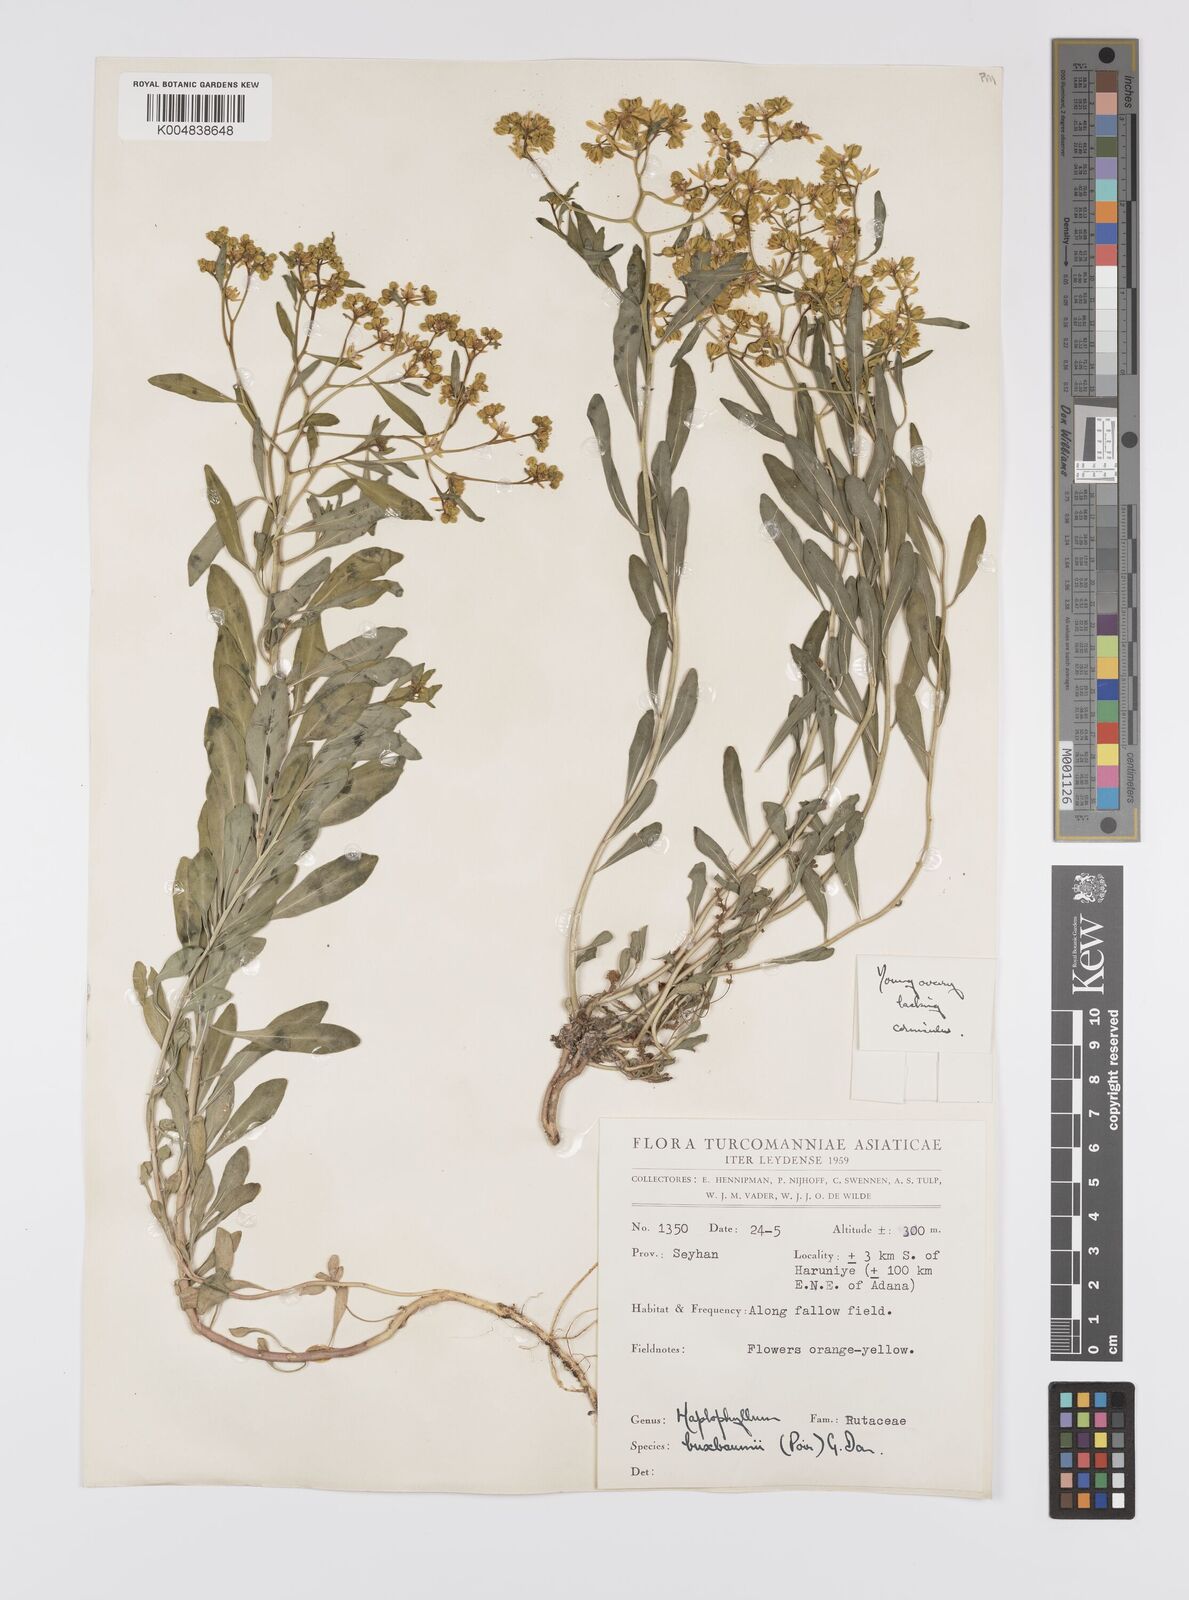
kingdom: Plantae
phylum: Tracheophyta
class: Magnoliopsida
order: Sapindales
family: Rutaceae
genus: Haplophyllum
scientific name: Haplophyllum
